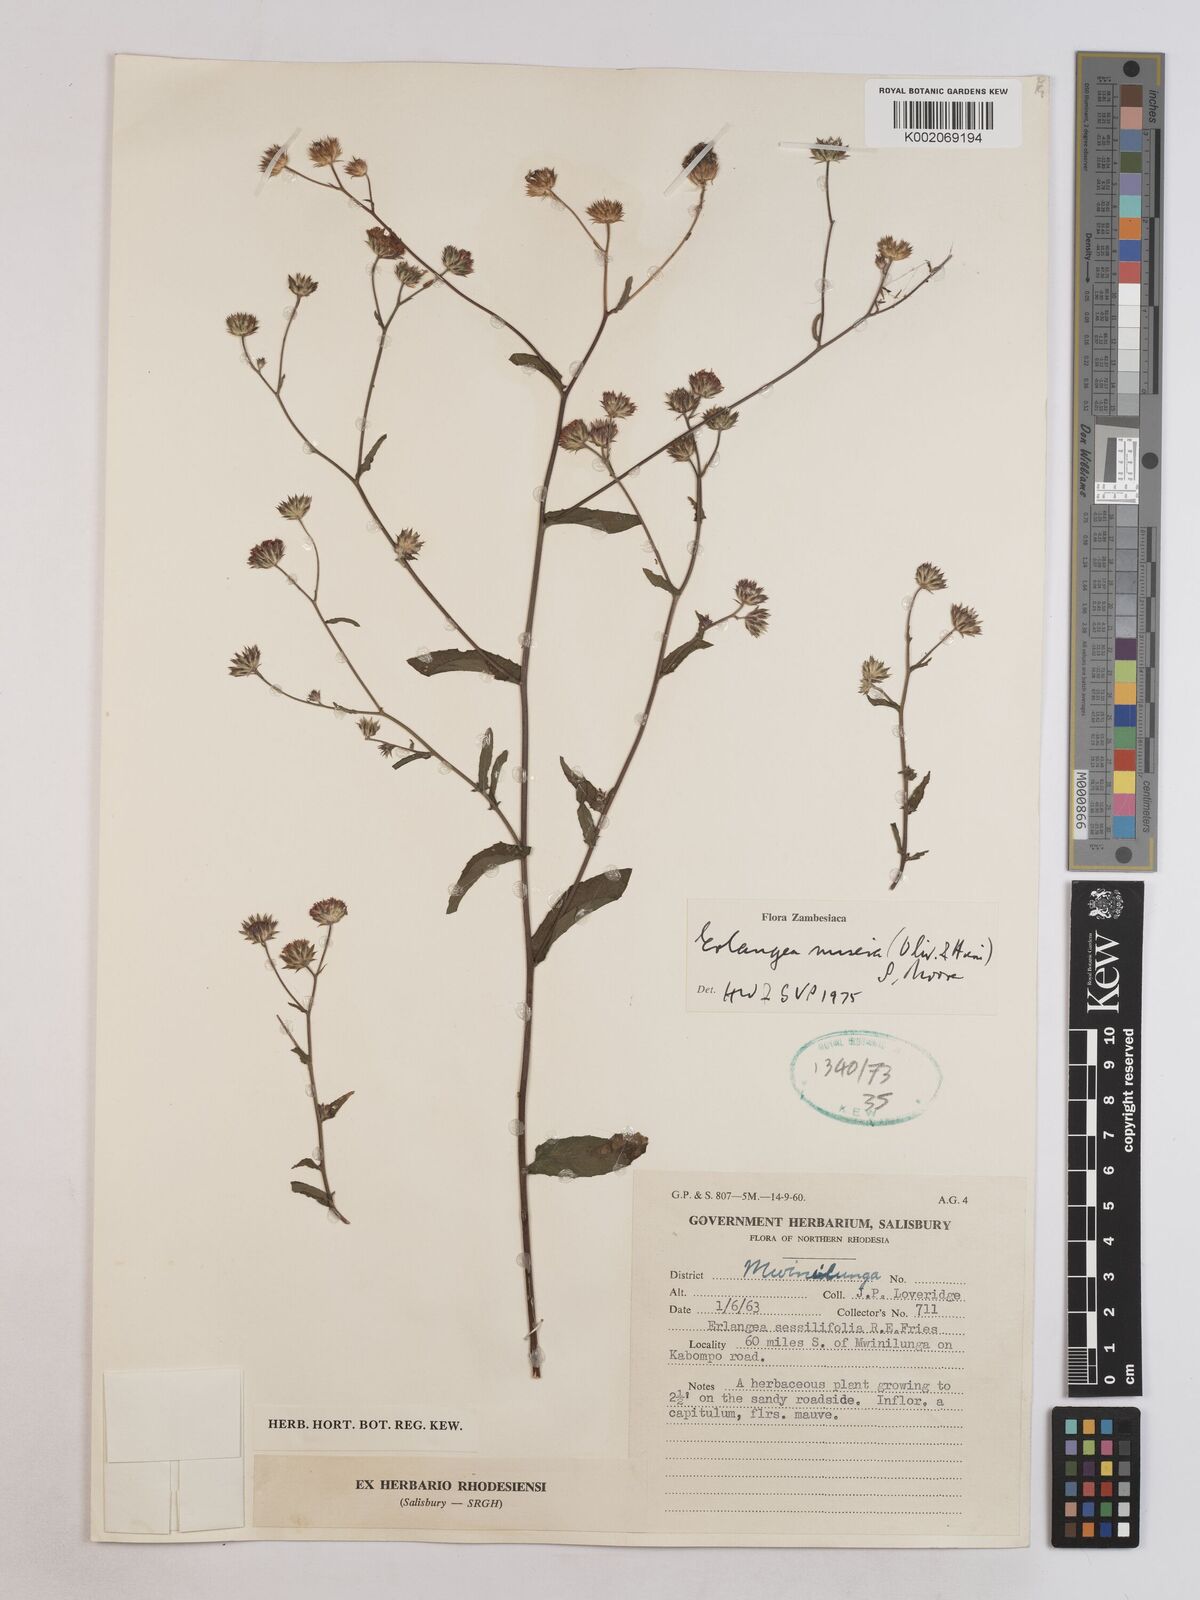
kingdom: Plantae
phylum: Tracheophyta
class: Magnoliopsida
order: Asterales
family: Asteraceae
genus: Erlangea
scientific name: Erlangea misera
